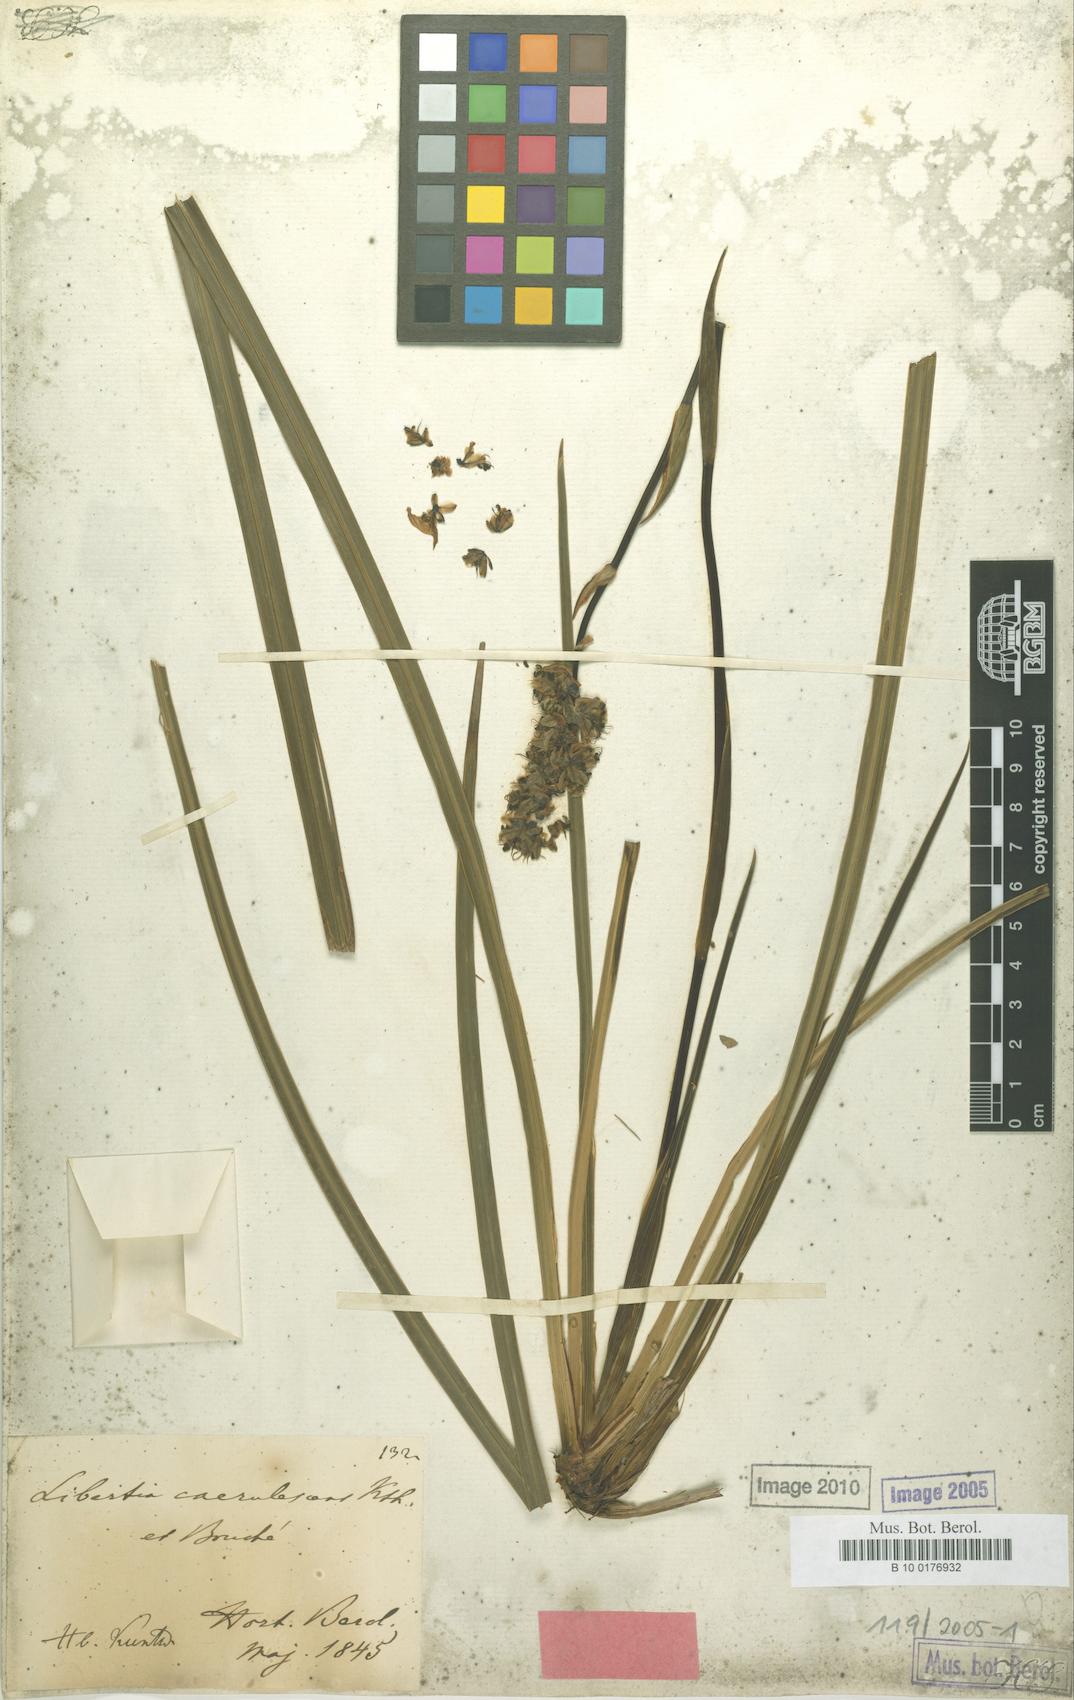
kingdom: Plantae
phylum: Tracheophyta
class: Liliopsida
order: Asparagales
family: Iridaceae
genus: Libertia
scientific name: Libertia sessiliflora
